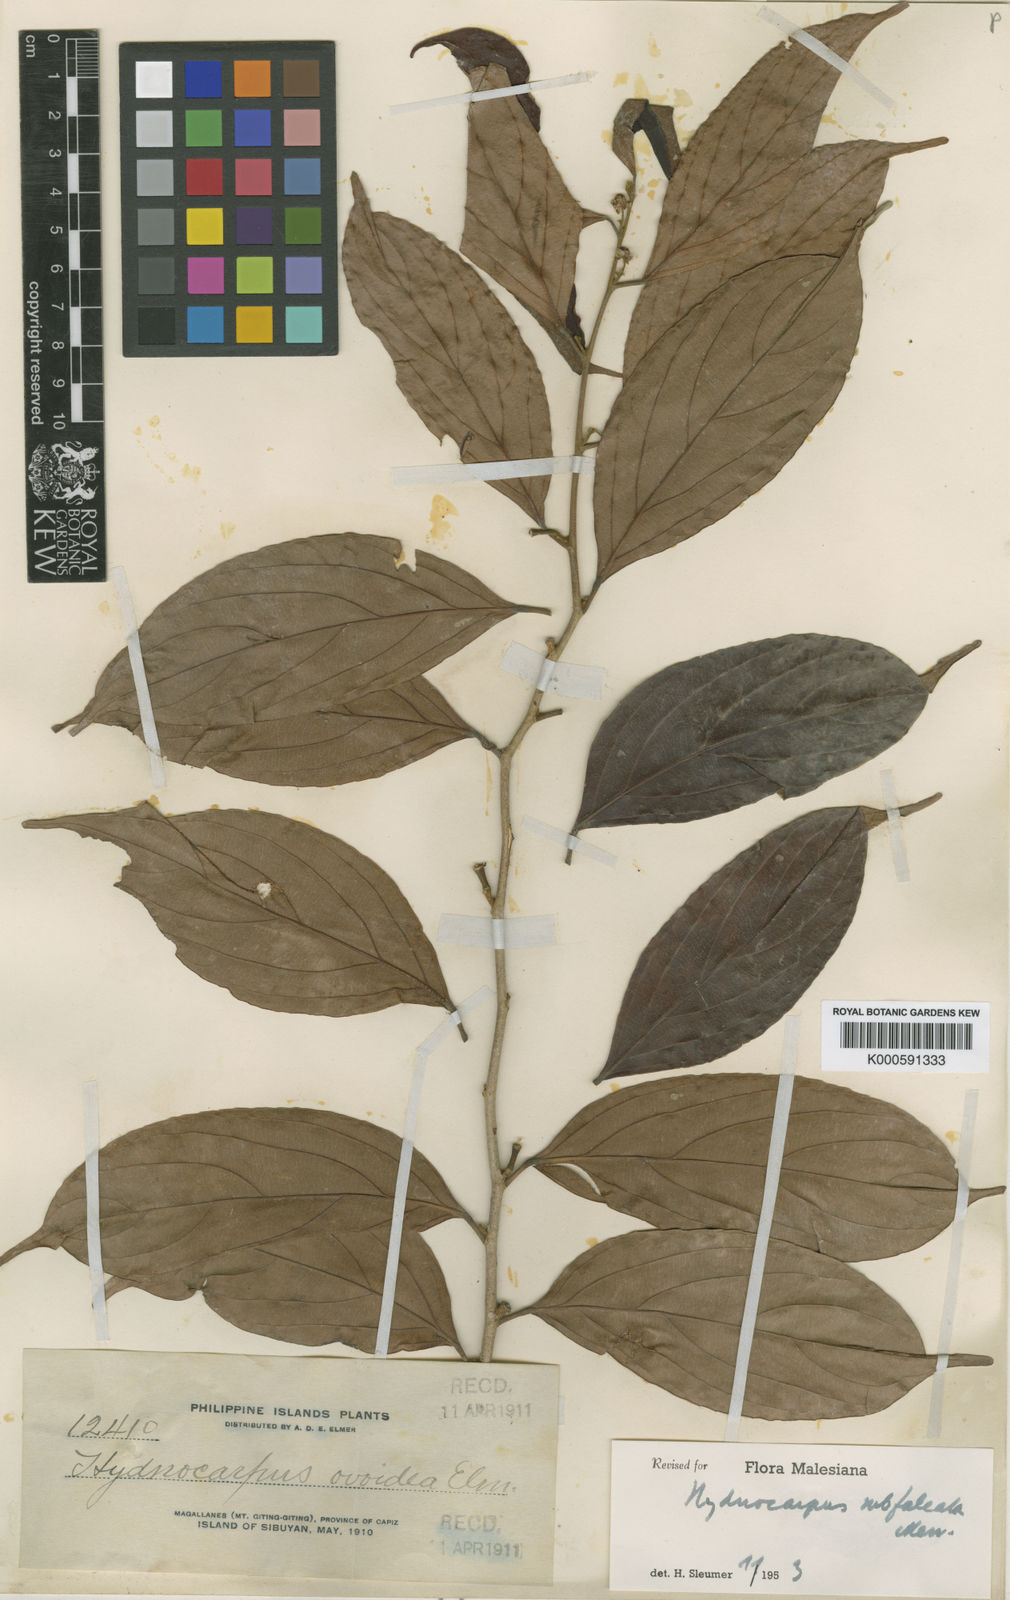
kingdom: Plantae
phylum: Tracheophyta
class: Magnoliopsida
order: Malpighiales
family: Achariaceae
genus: Hydnocarpus
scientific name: Hydnocarpus subfalcatus
